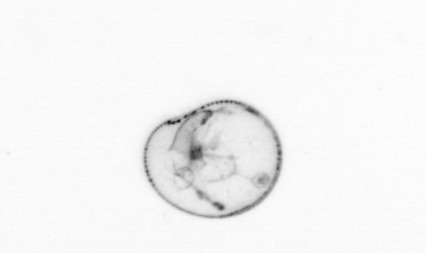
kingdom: Chromista
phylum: Myzozoa
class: Dinophyceae
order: Noctilucales
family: Noctilucaceae
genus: Noctiluca
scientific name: Noctiluca scintillans
